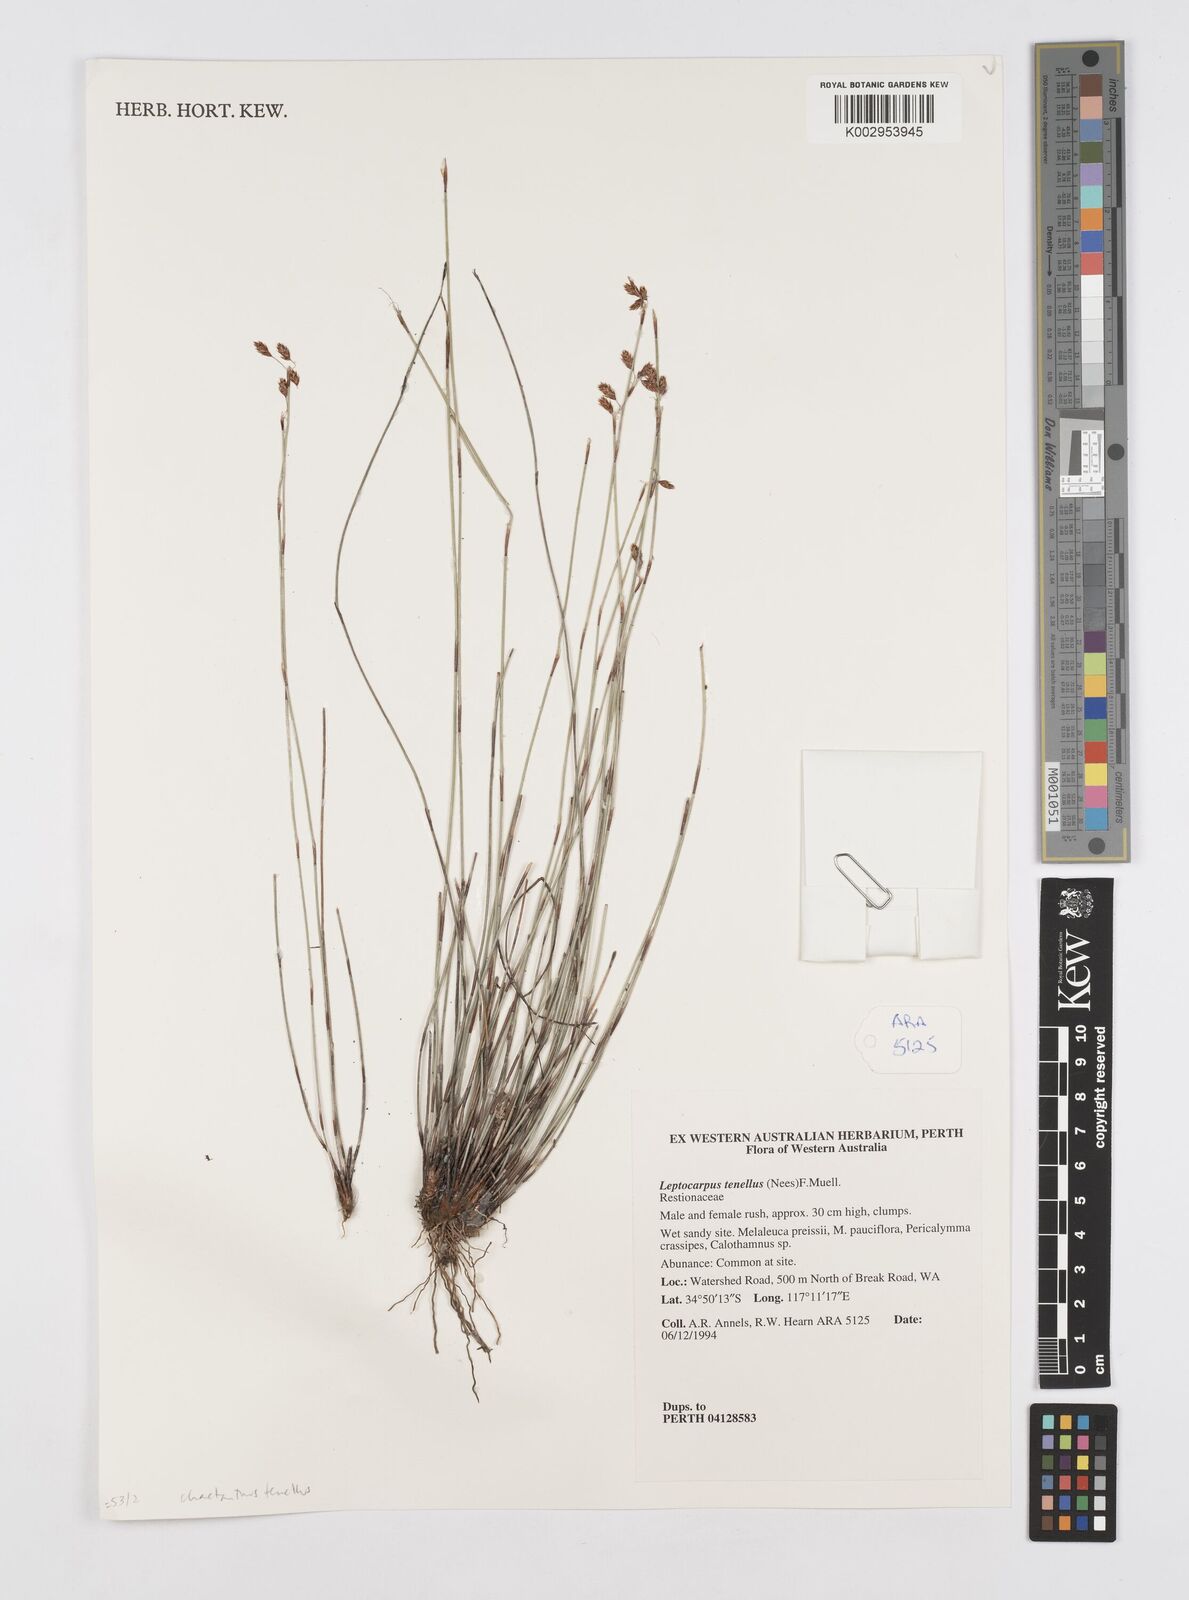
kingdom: Plantae
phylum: Tracheophyta
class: Liliopsida
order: Poales
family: Restionaceae
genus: Chaetanthus
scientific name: Chaetanthus tenellus
